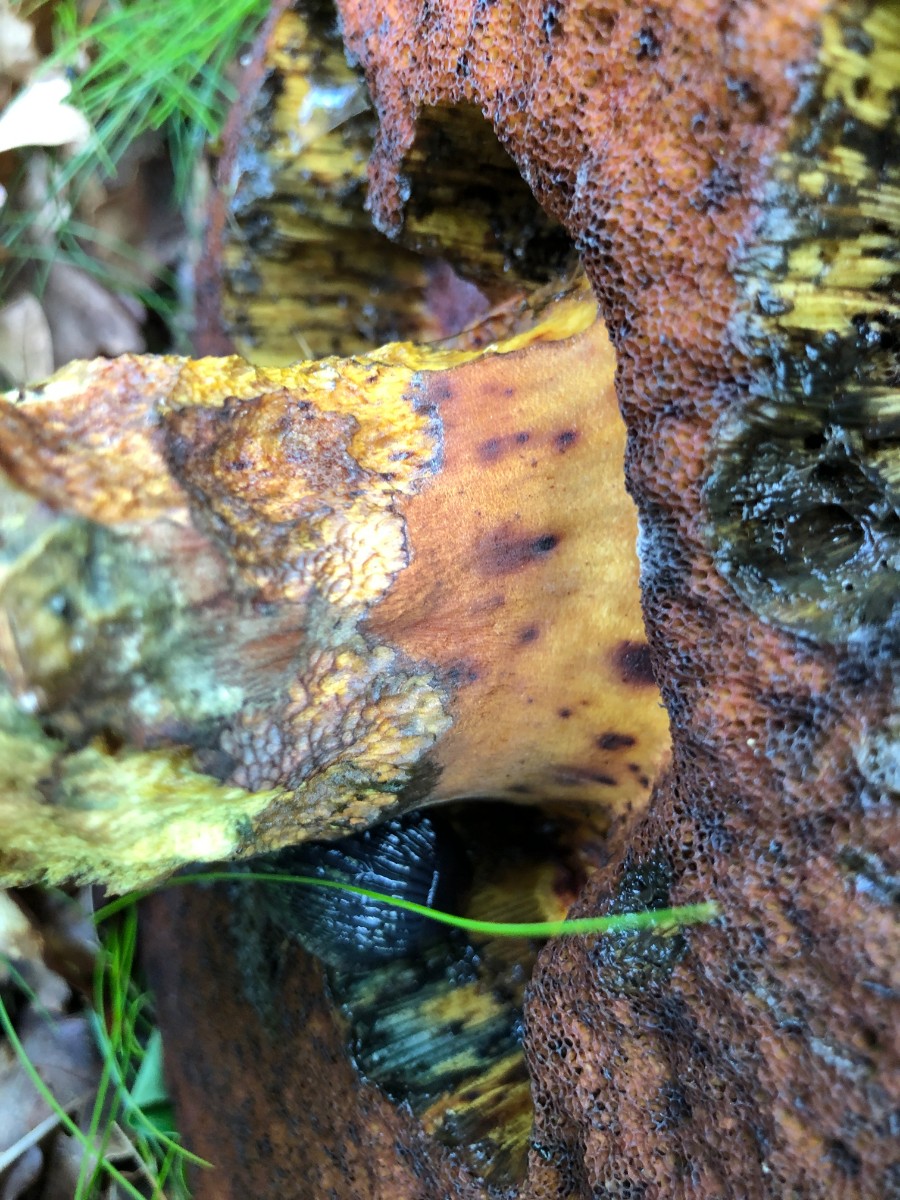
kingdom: Fungi
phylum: Basidiomycota
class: Agaricomycetes
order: Boletales
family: Boletaceae
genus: Neoboletus
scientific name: Neoboletus erythropus
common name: punktstokket indigorørhat
